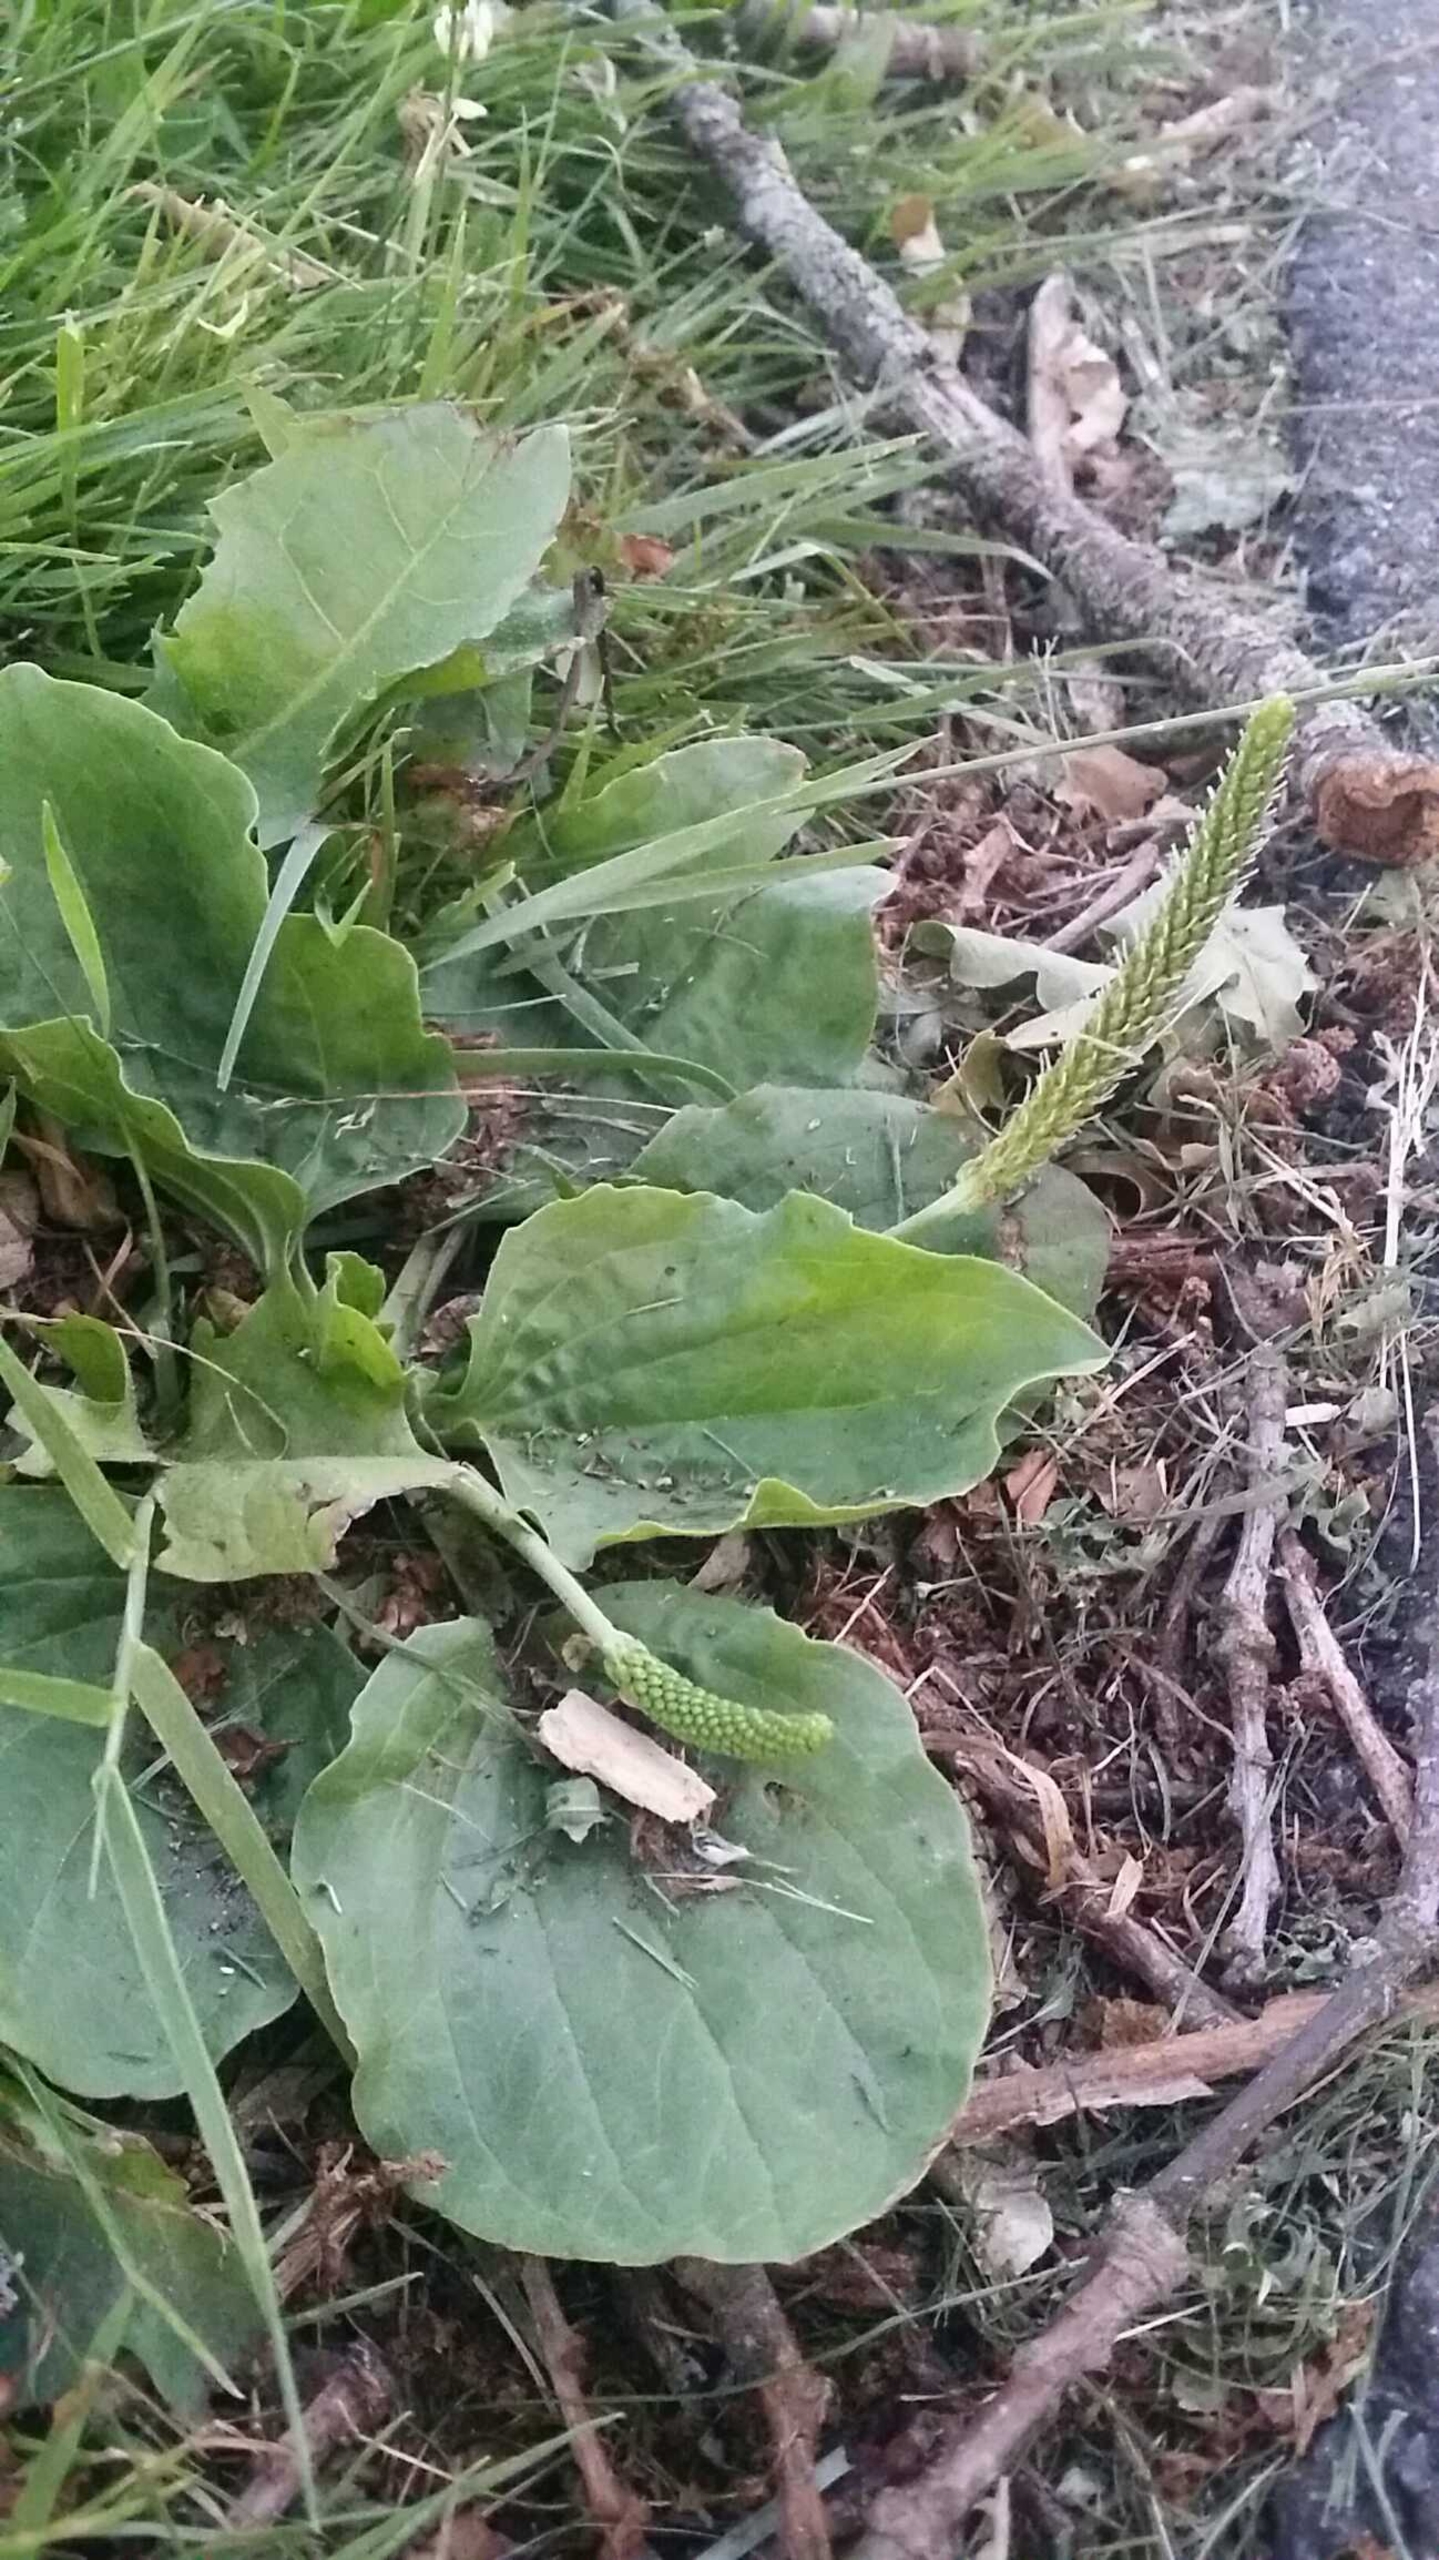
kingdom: Plantae
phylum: Tracheophyta
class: Magnoliopsida
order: Lamiales
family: Plantaginaceae
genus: Plantago
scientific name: Plantago major
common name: Glat vejbred
